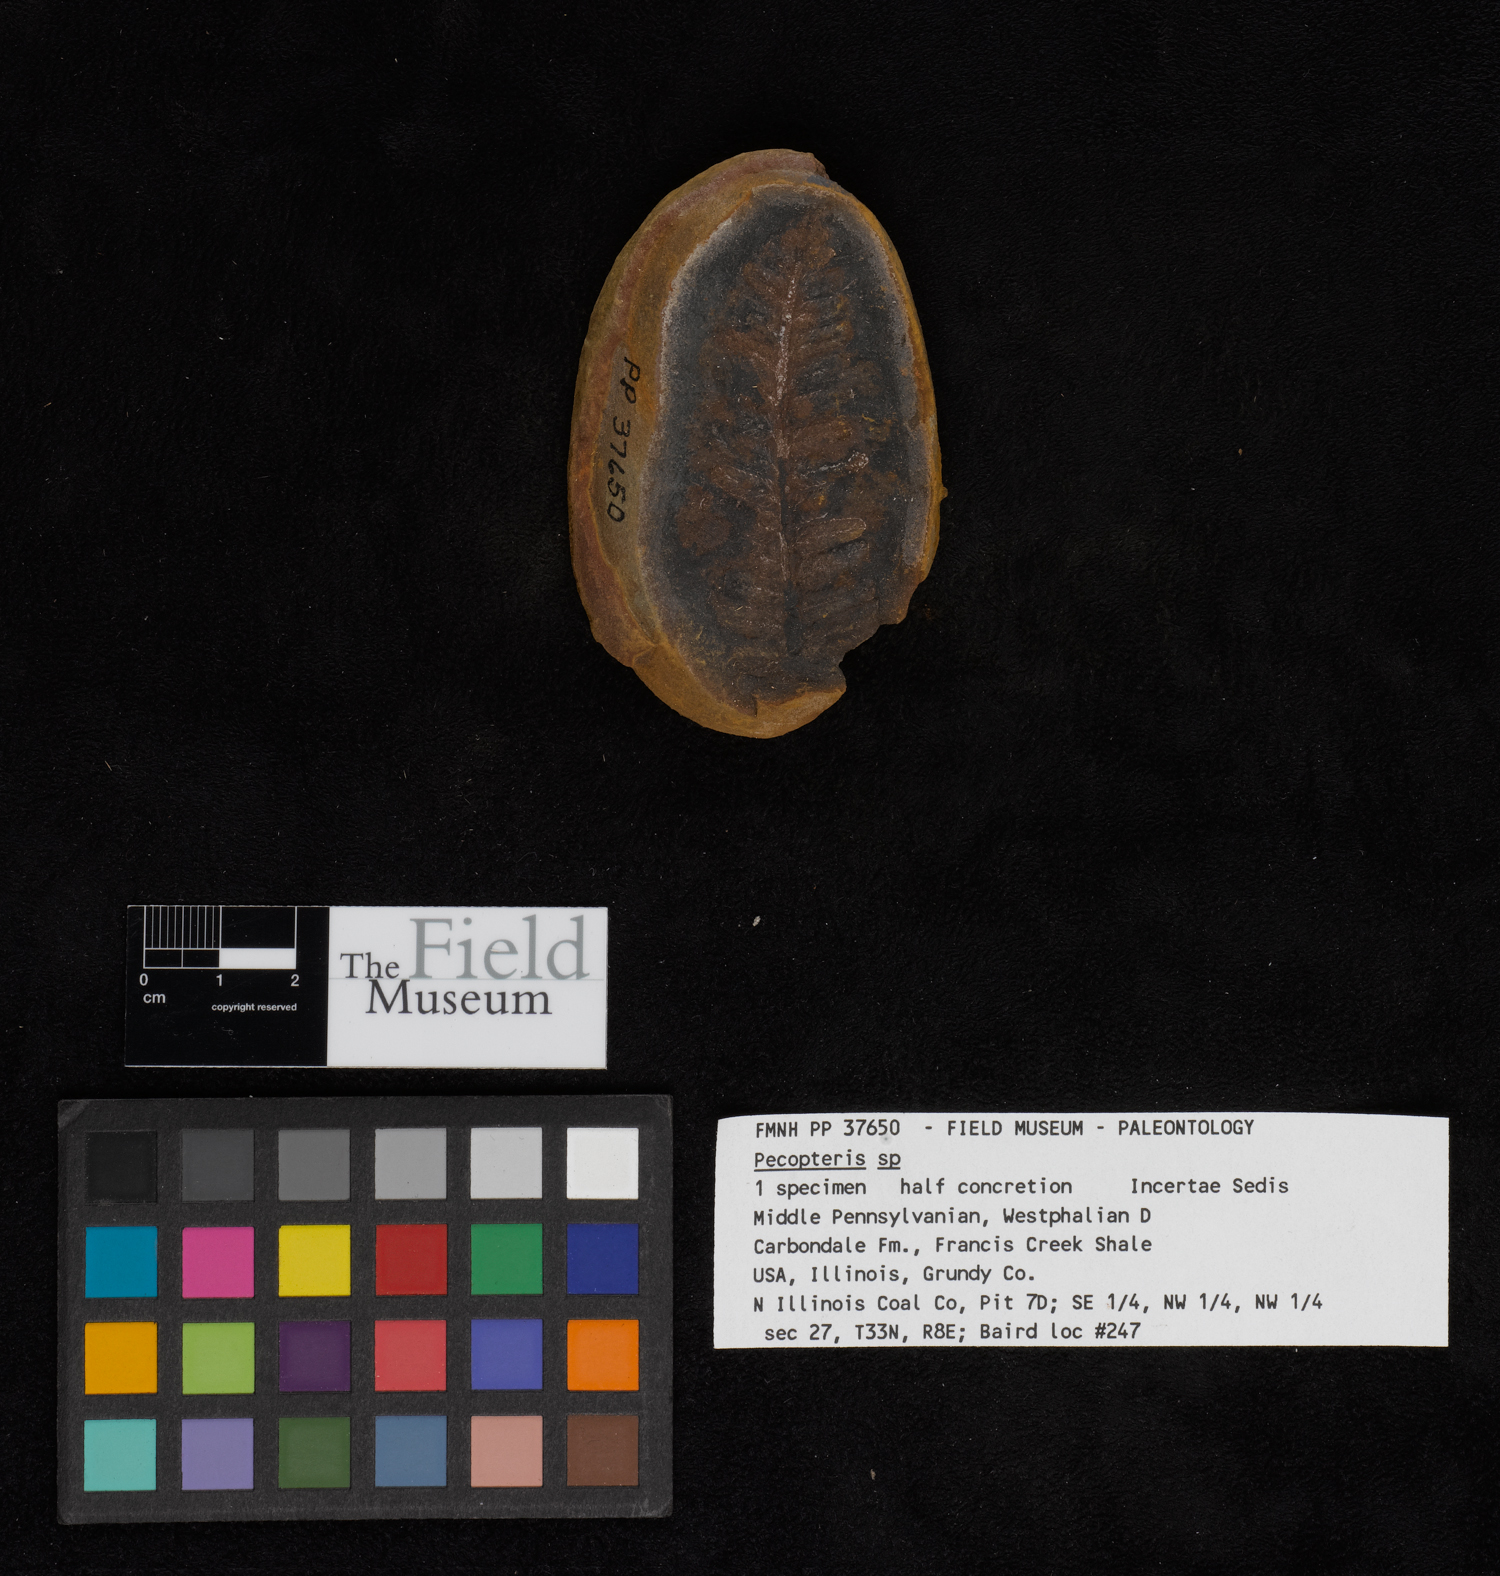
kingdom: Plantae
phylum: Tracheophyta
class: Polypodiopsida
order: Marattiales
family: Asterothecaceae
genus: Pecopteris
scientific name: Pecopteris
